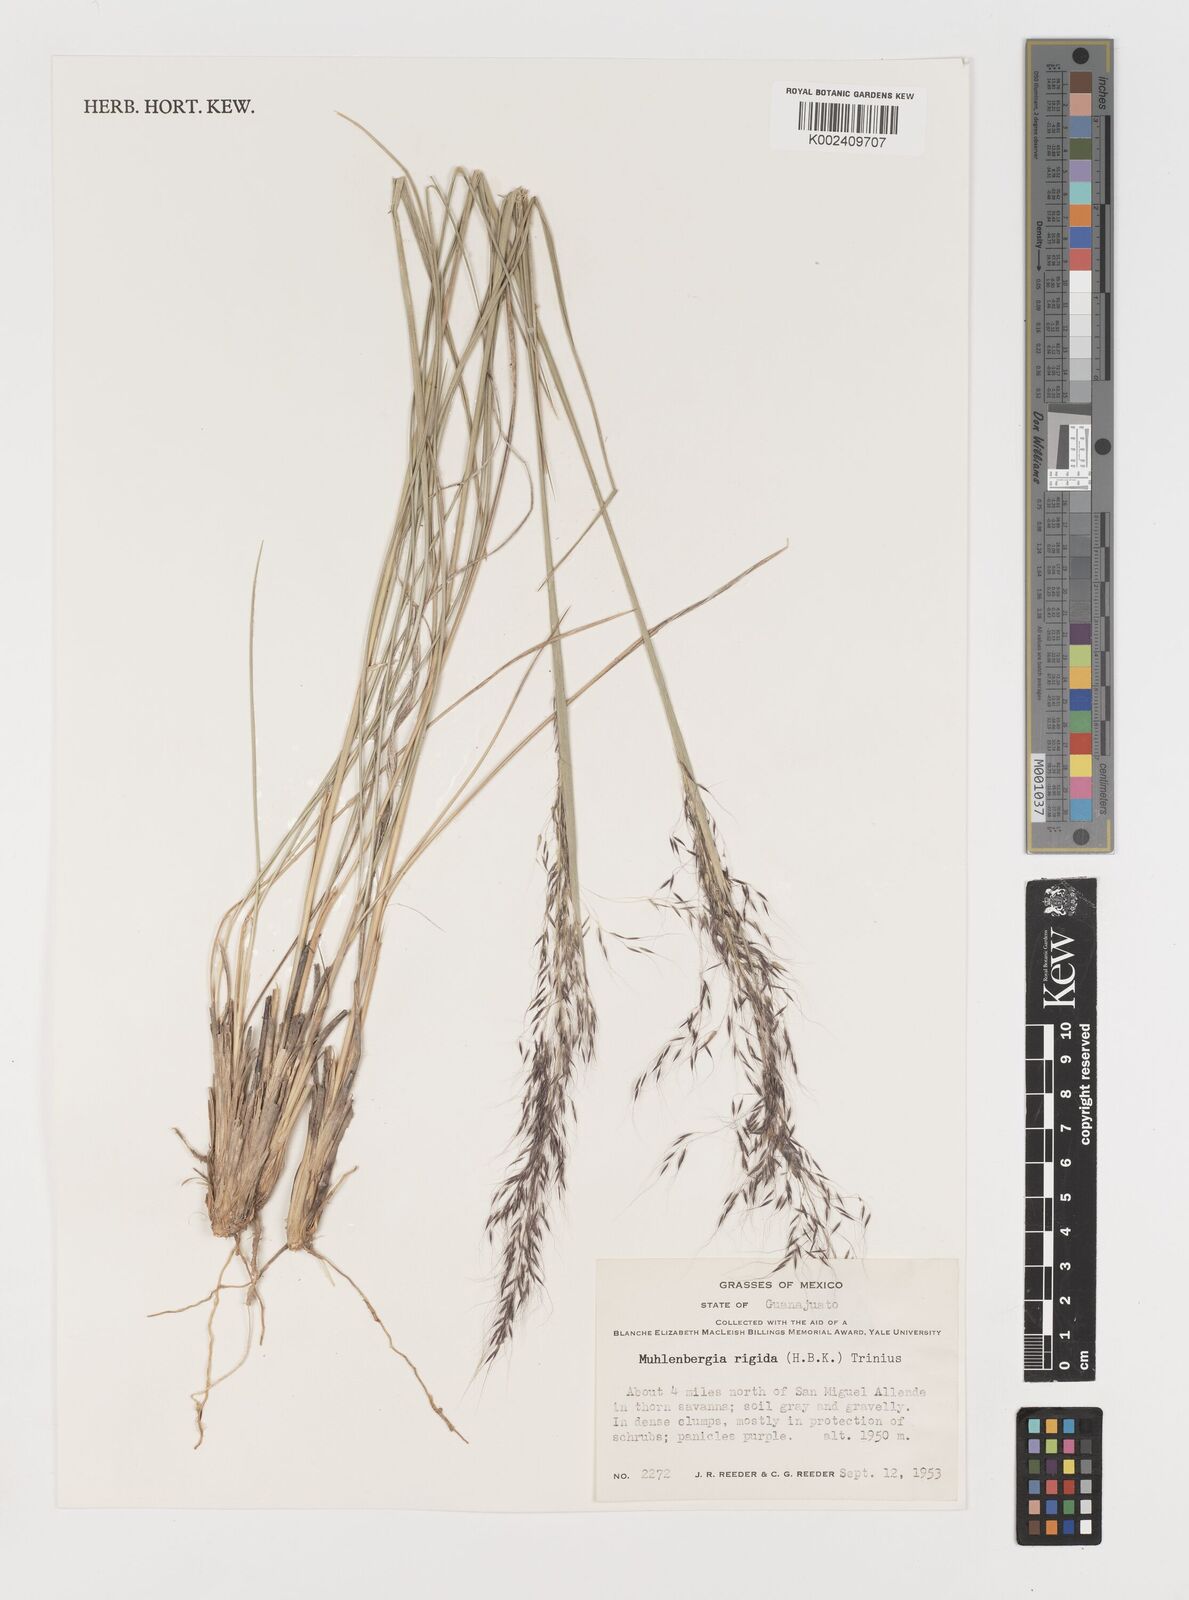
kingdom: Plantae
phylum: Tracheophyta
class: Liliopsida
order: Poales
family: Poaceae
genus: Muhlenbergia
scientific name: Muhlenbergia rigida
